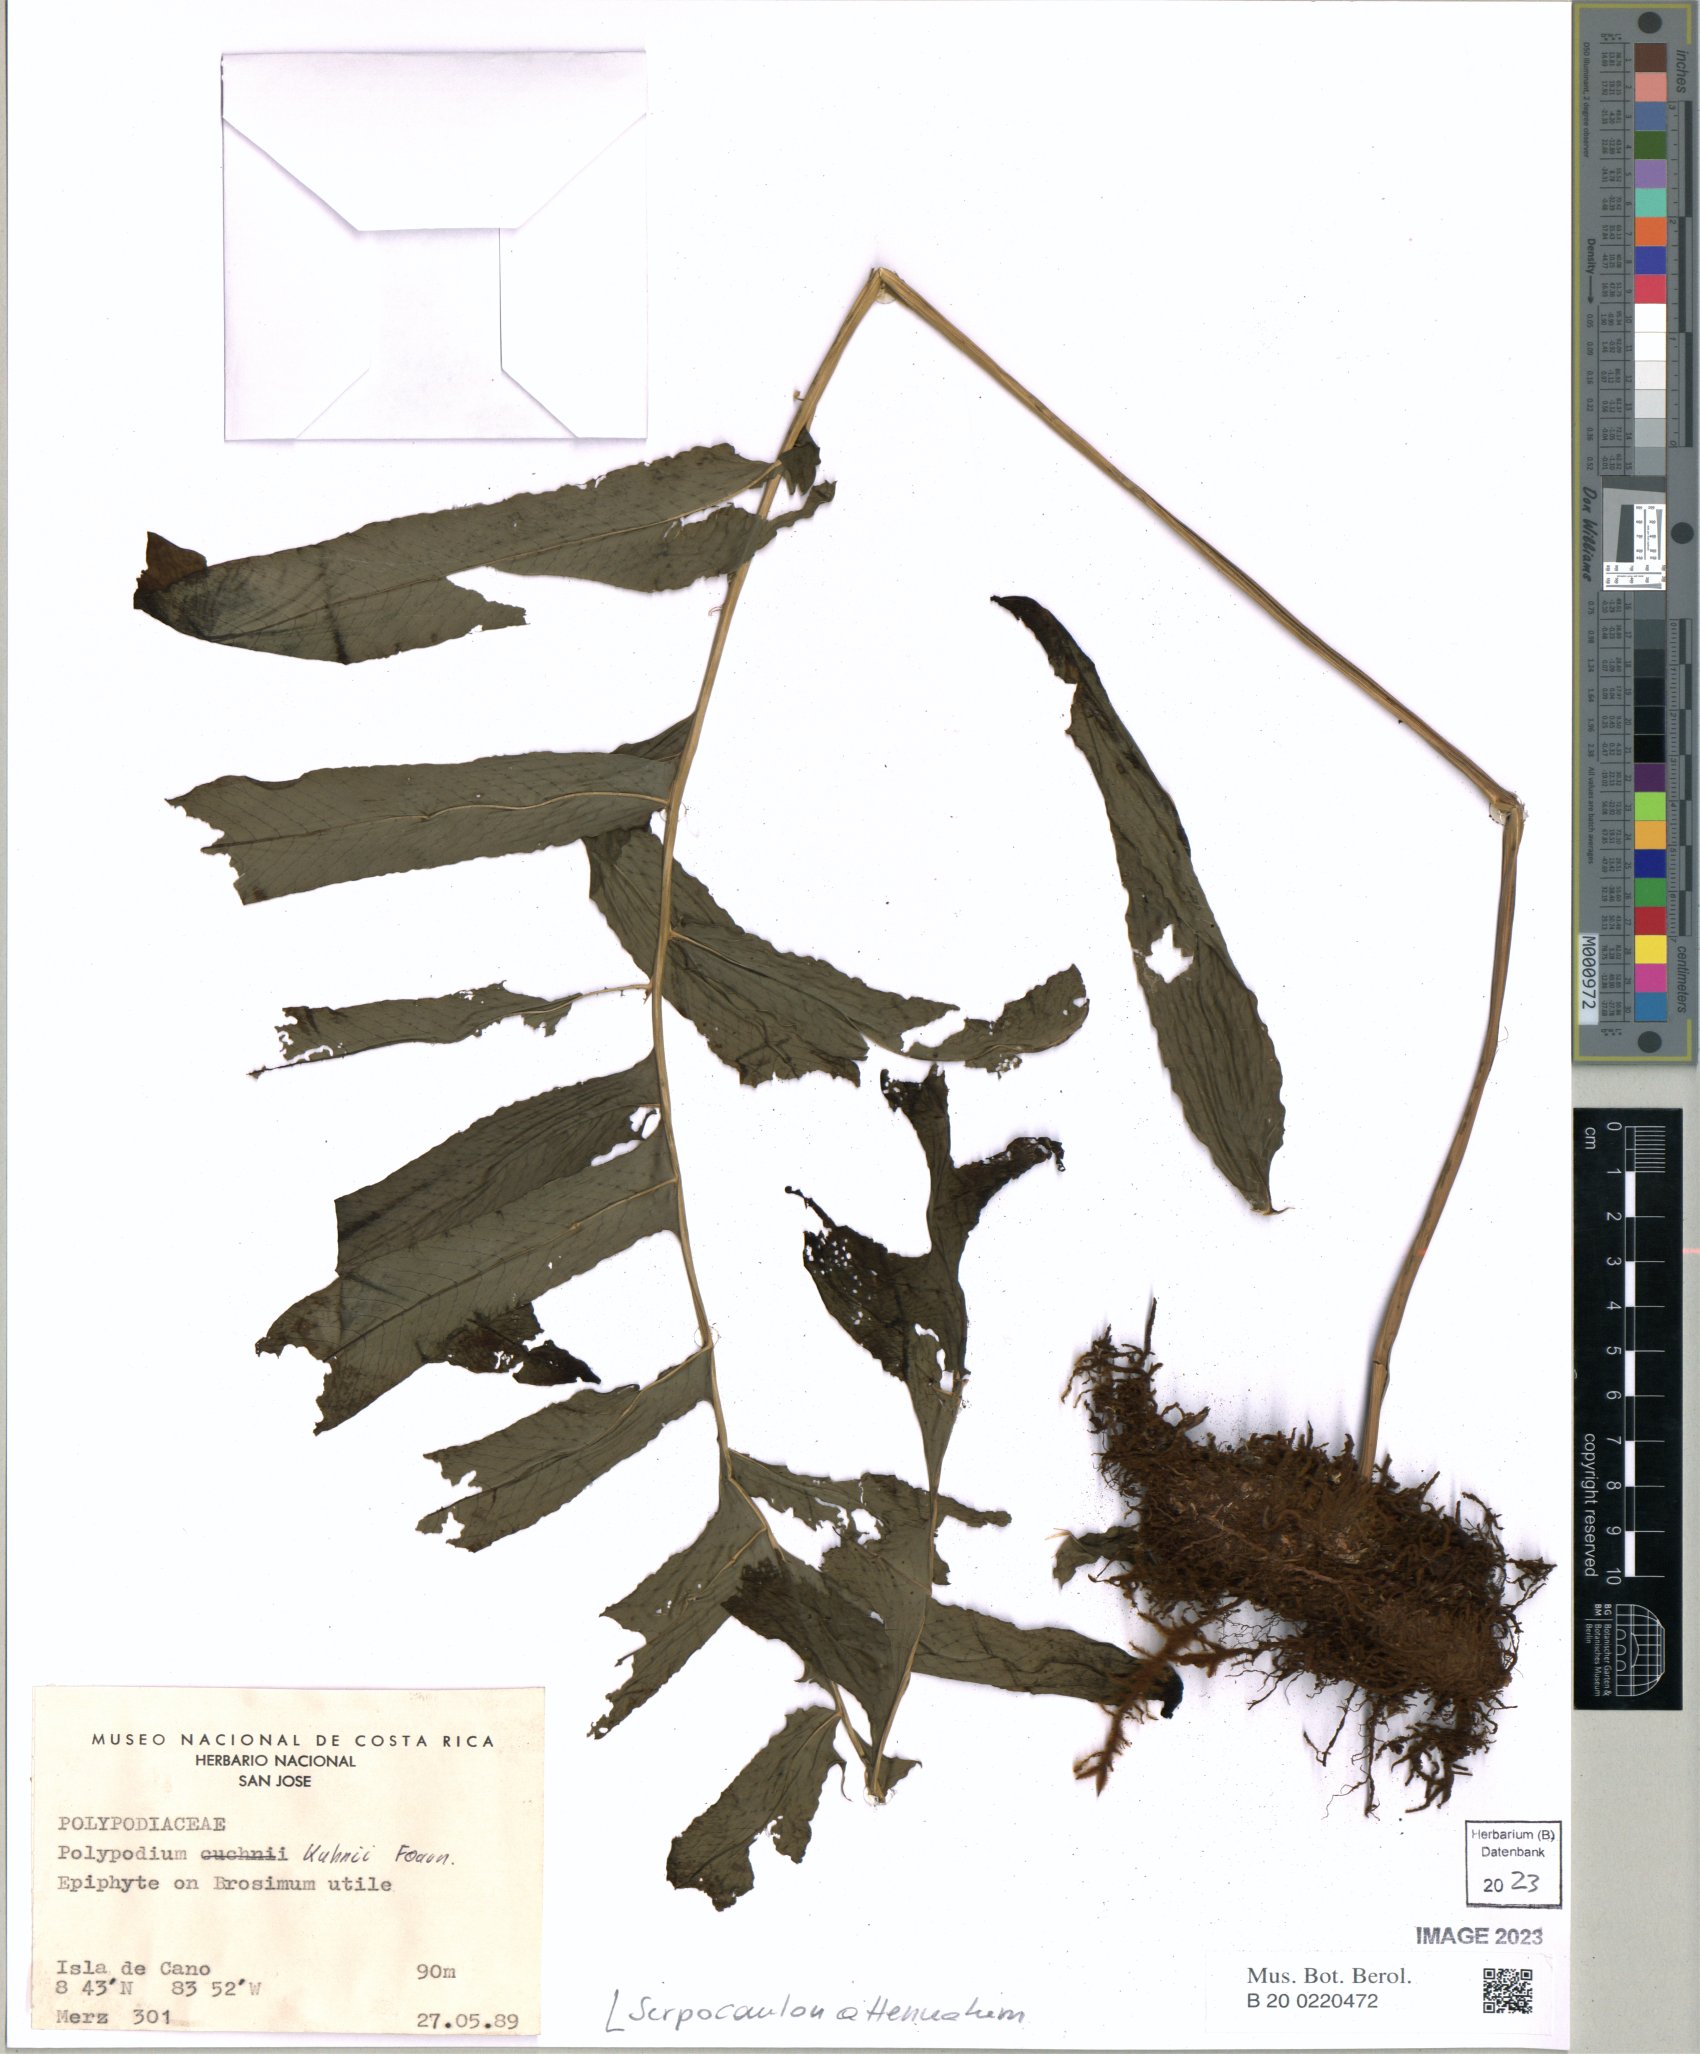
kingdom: Plantae
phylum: Tracheophyta
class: Polypodiopsida
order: Polypodiales
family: Polypodiaceae
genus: Serpocaulon
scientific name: Serpocaulon attenuatum
